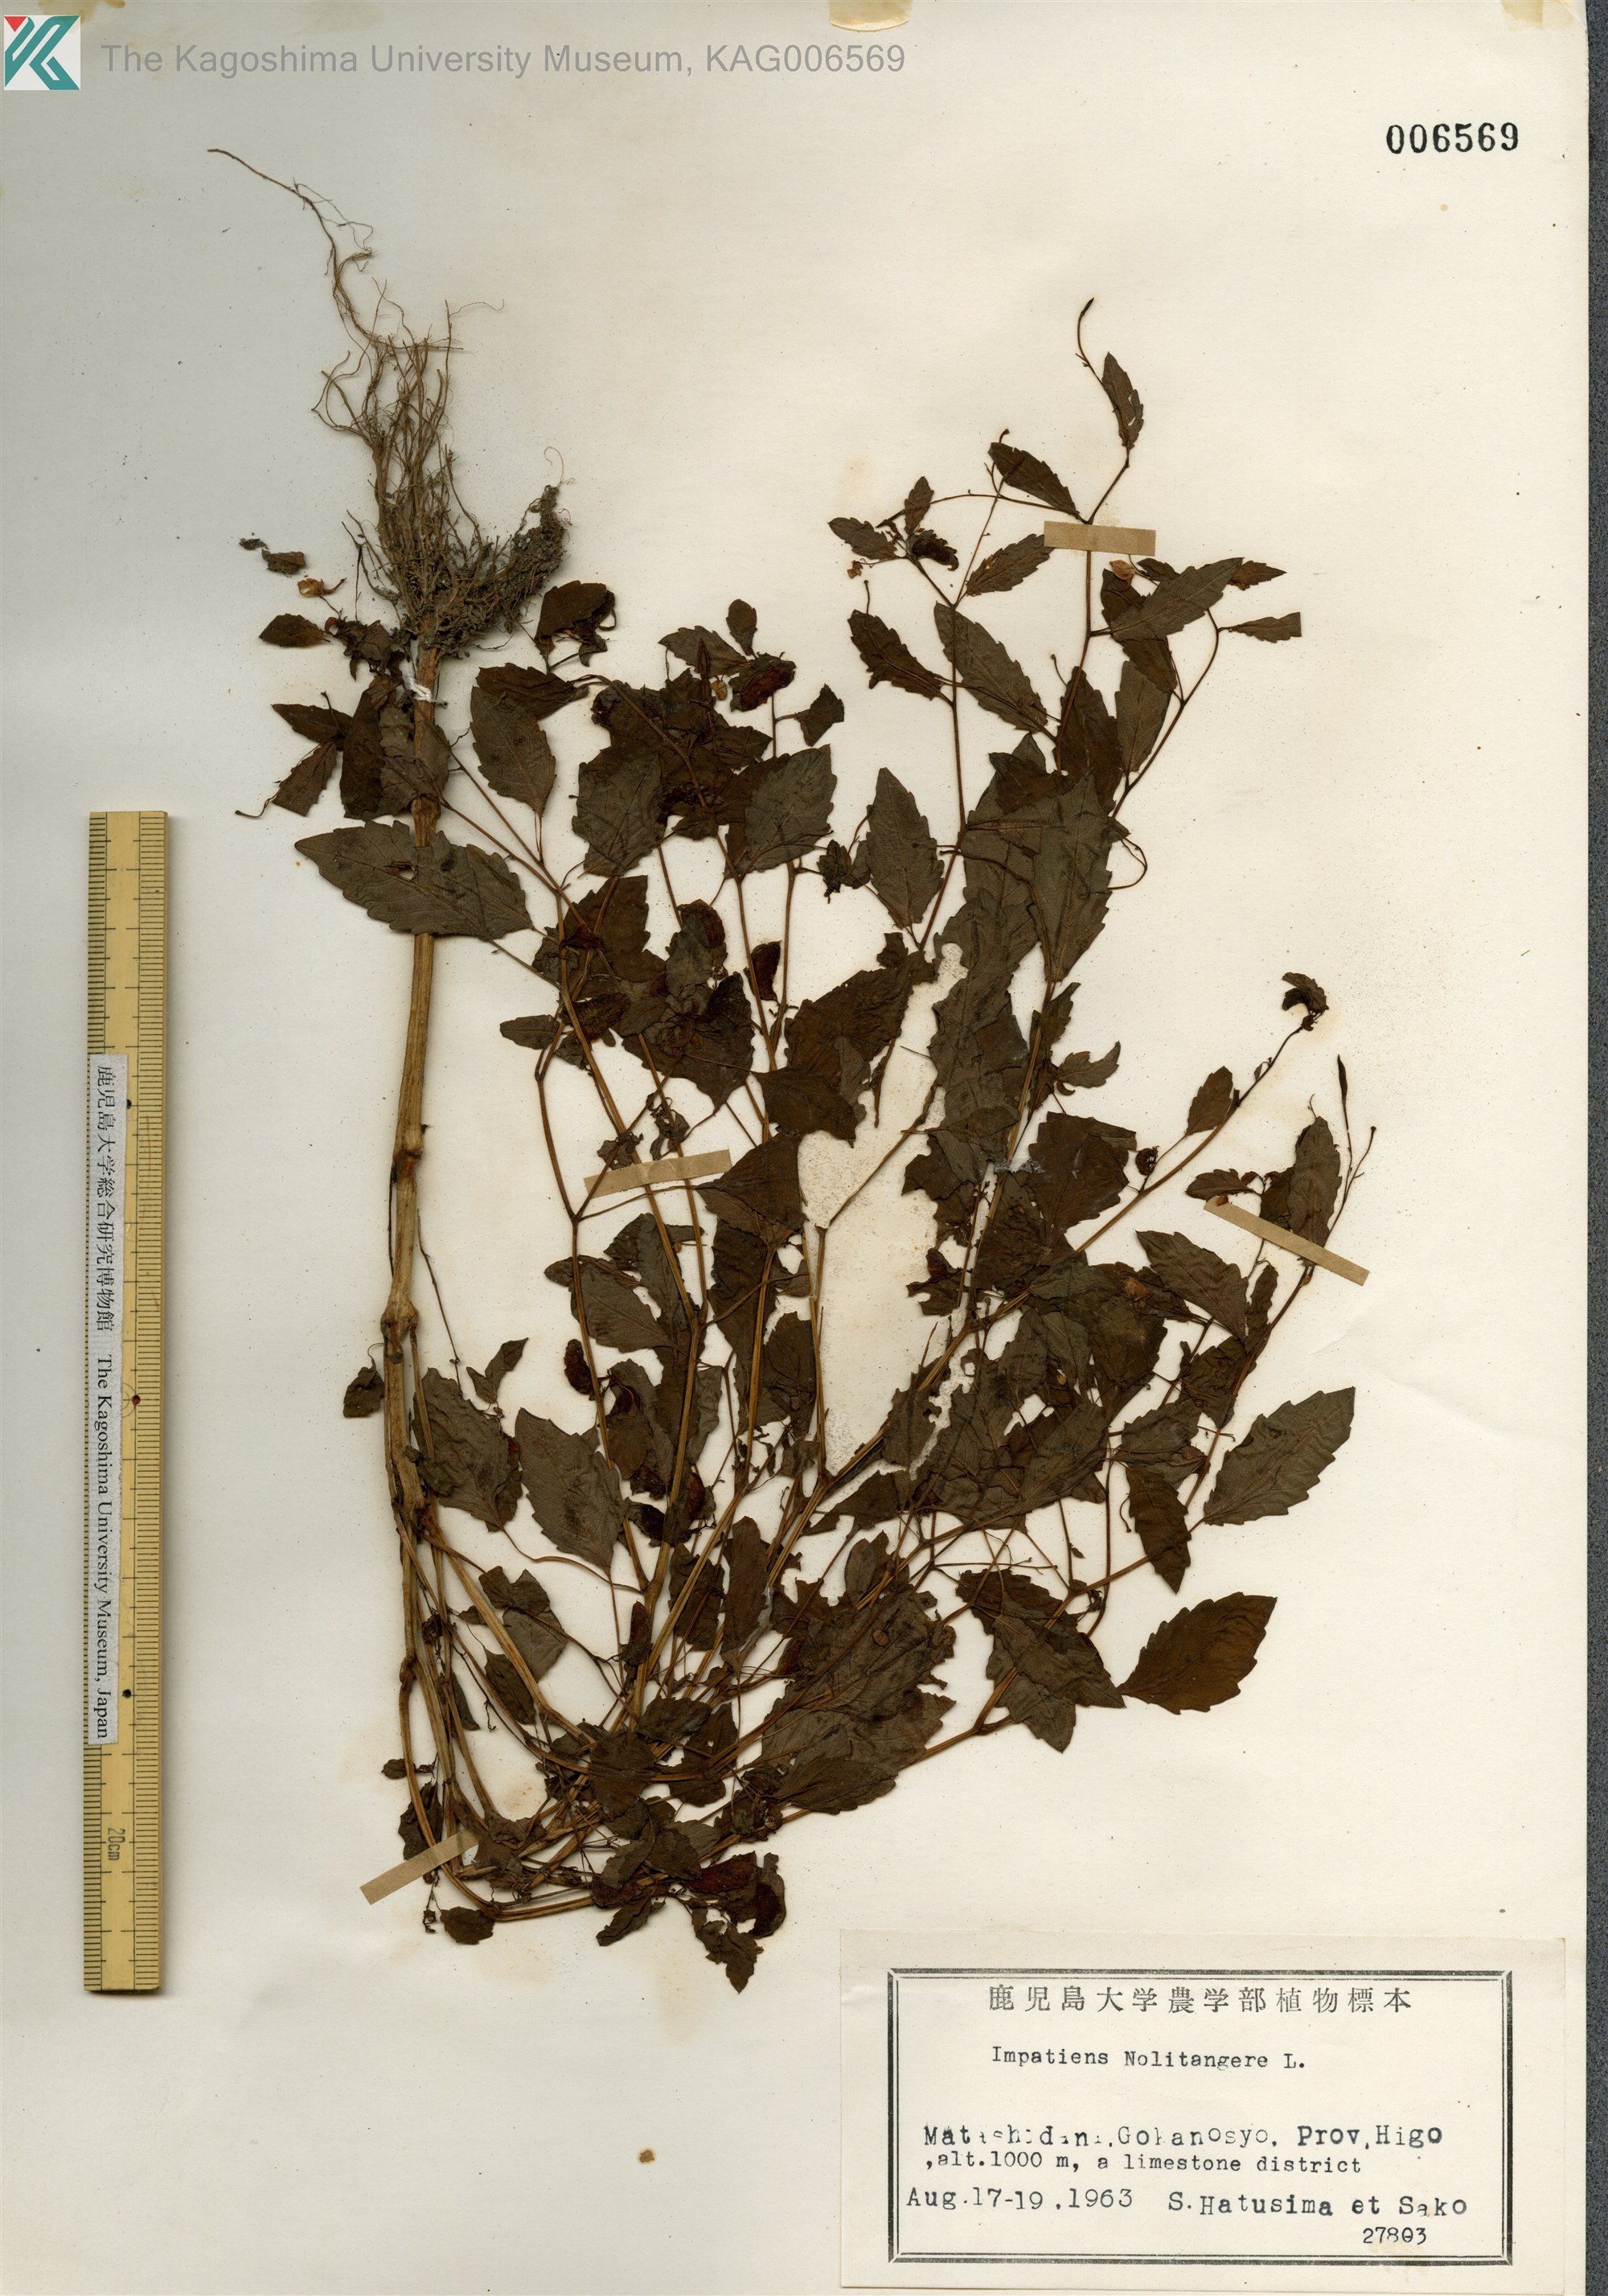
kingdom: Plantae
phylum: Tracheophyta
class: Magnoliopsida
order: Ericales
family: Balsaminaceae
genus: Impatiens
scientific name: Impatiens noli-tangere
